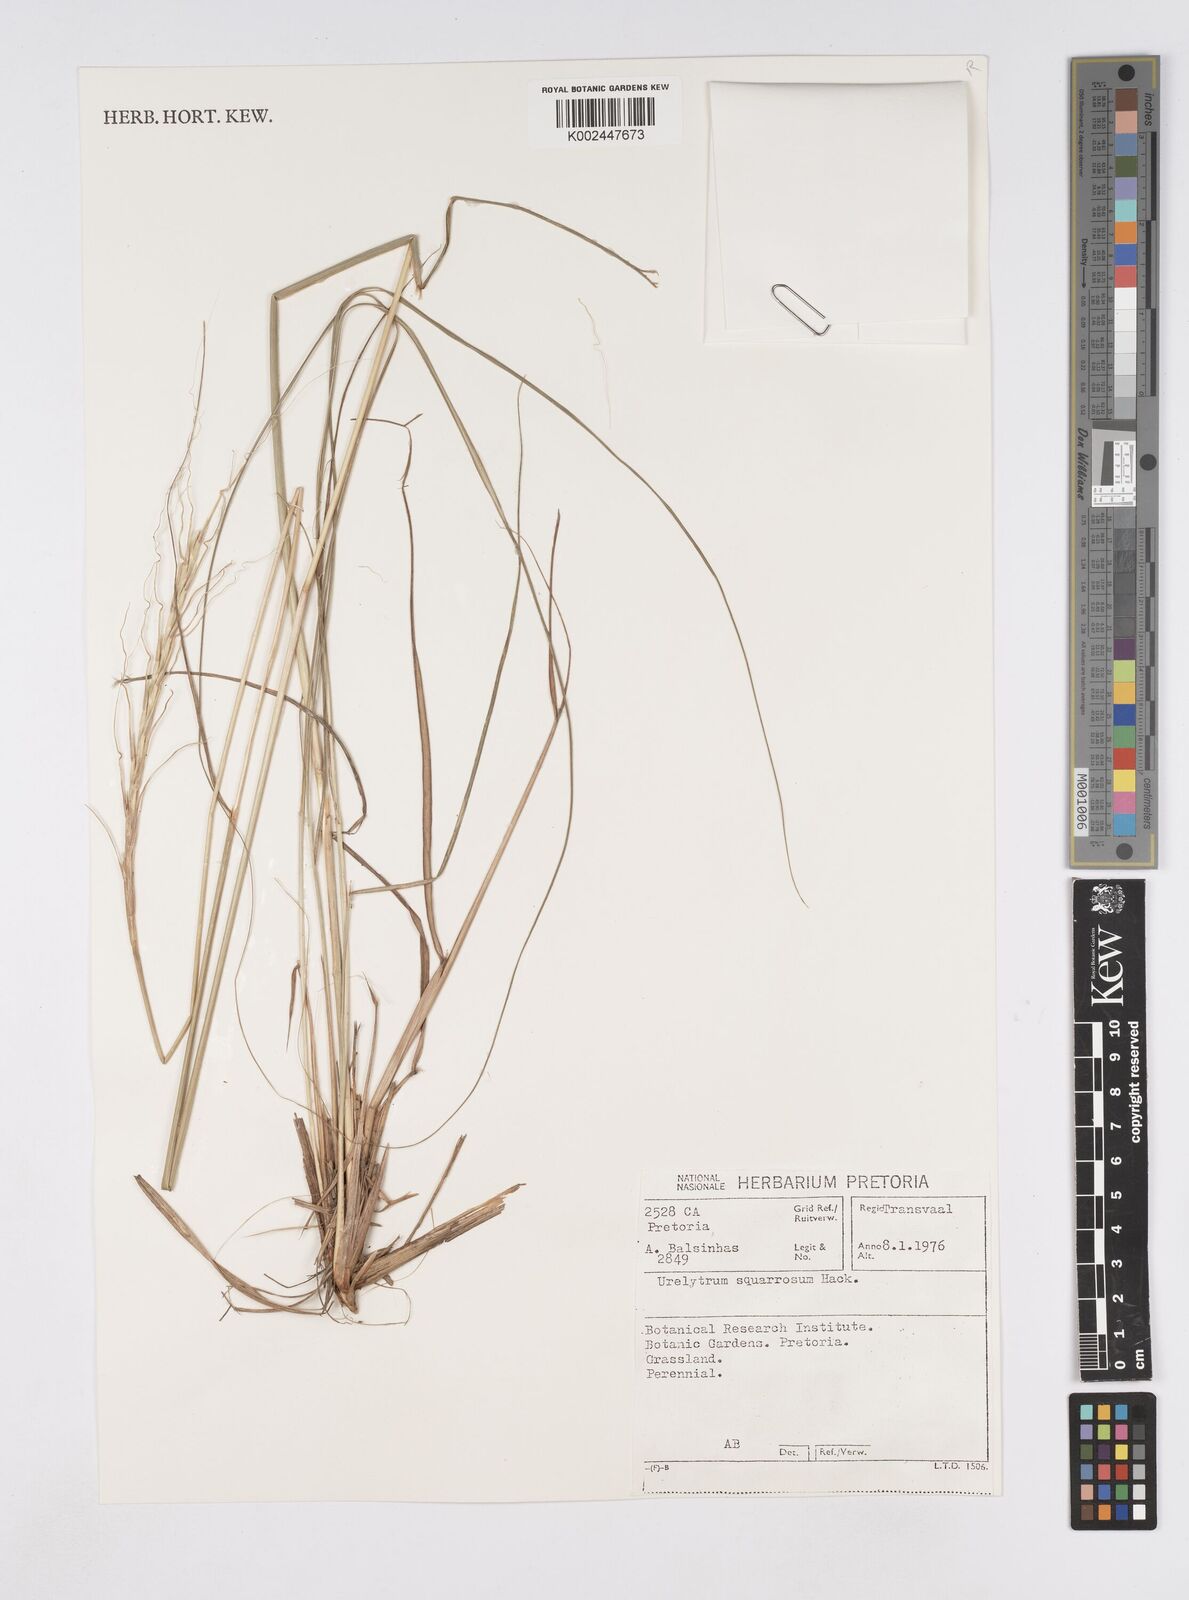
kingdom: Plantae
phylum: Tracheophyta
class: Liliopsida
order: Poales
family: Poaceae
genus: Urelytrum
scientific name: Urelytrum agropyroides
